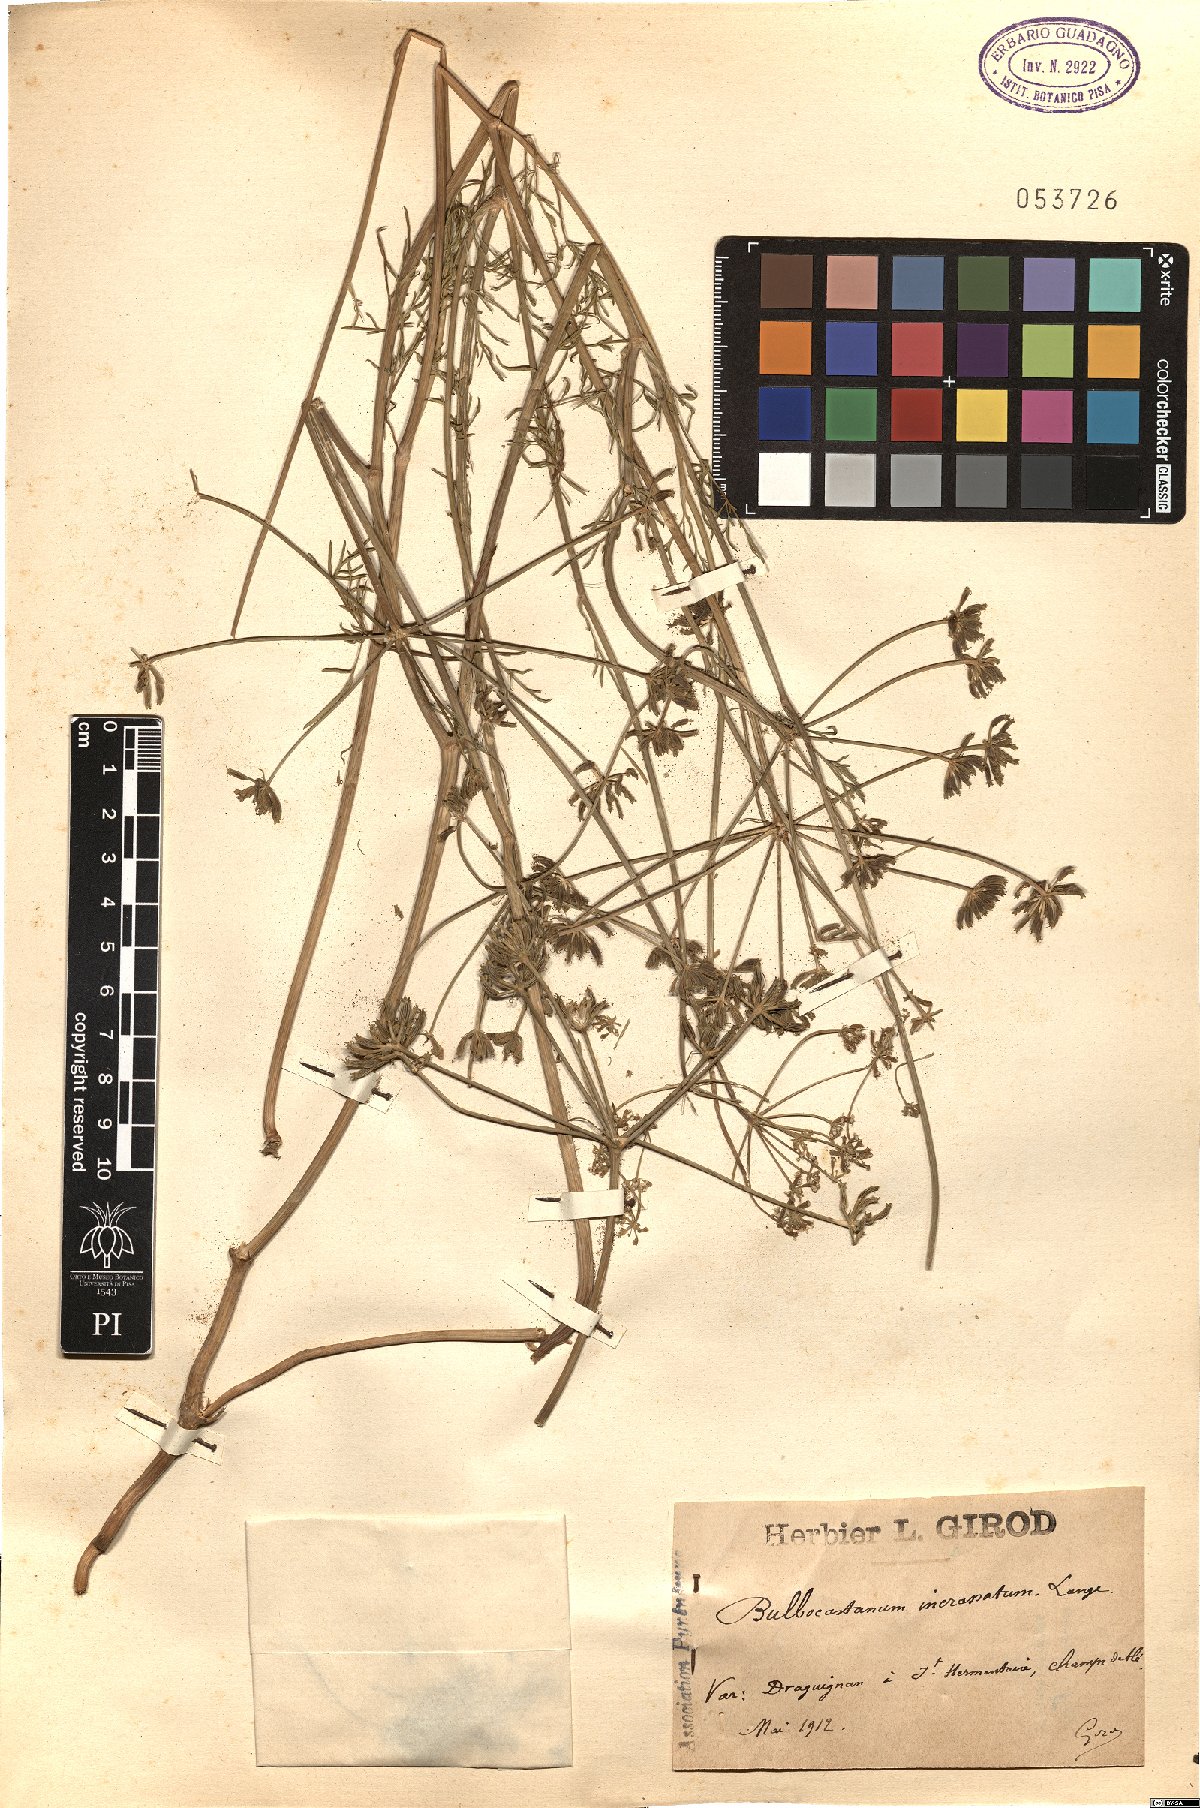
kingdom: Plantae
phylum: Tracheophyta
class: Magnoliopsida
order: Apiales
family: Apiaceae
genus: Bunium
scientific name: Bunium pachypodum
